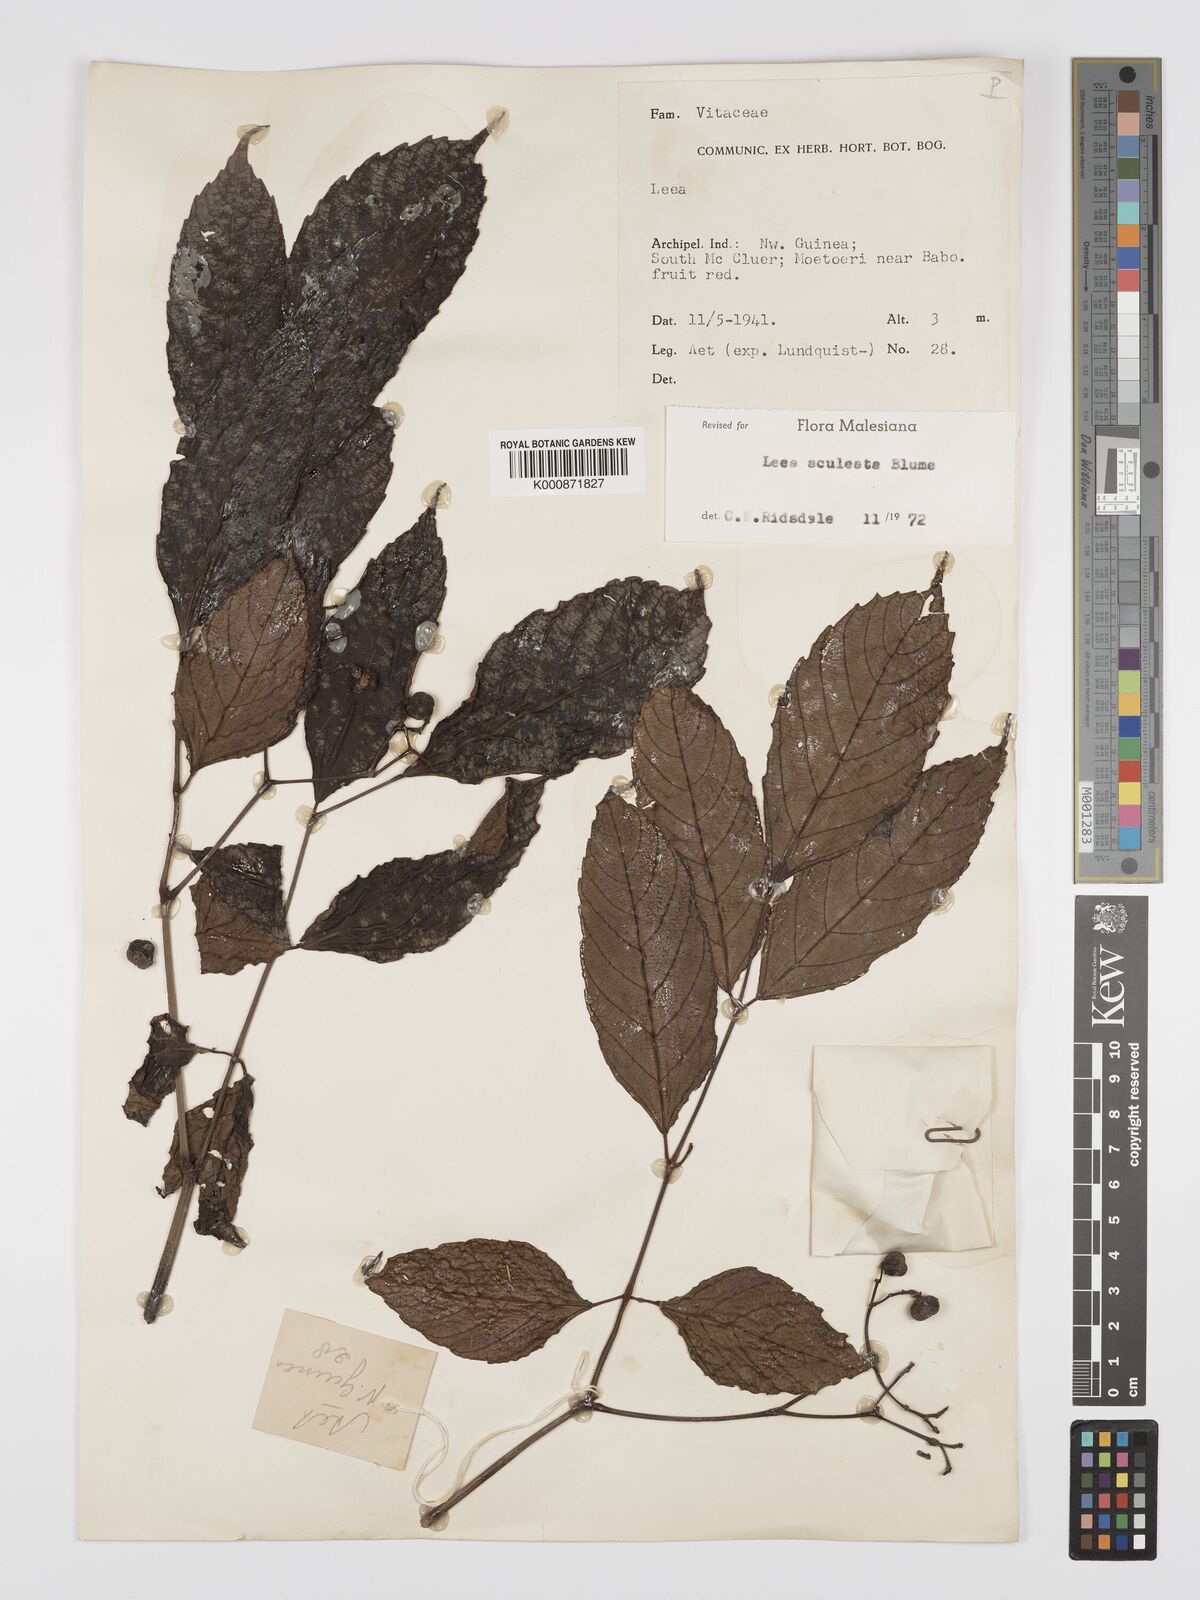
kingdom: Plantae
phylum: Tracheophyta
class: Magnoliopsida
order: Vitales
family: Vitaceae
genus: Leea
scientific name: Leea aculeata
